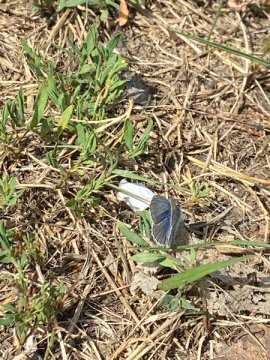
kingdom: Animalia
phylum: Arthropoda
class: Insecta
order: Lepidoptera
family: Lycaenidae
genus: Cyaniris
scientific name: Cyaniris neglecta
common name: Summer Azure
